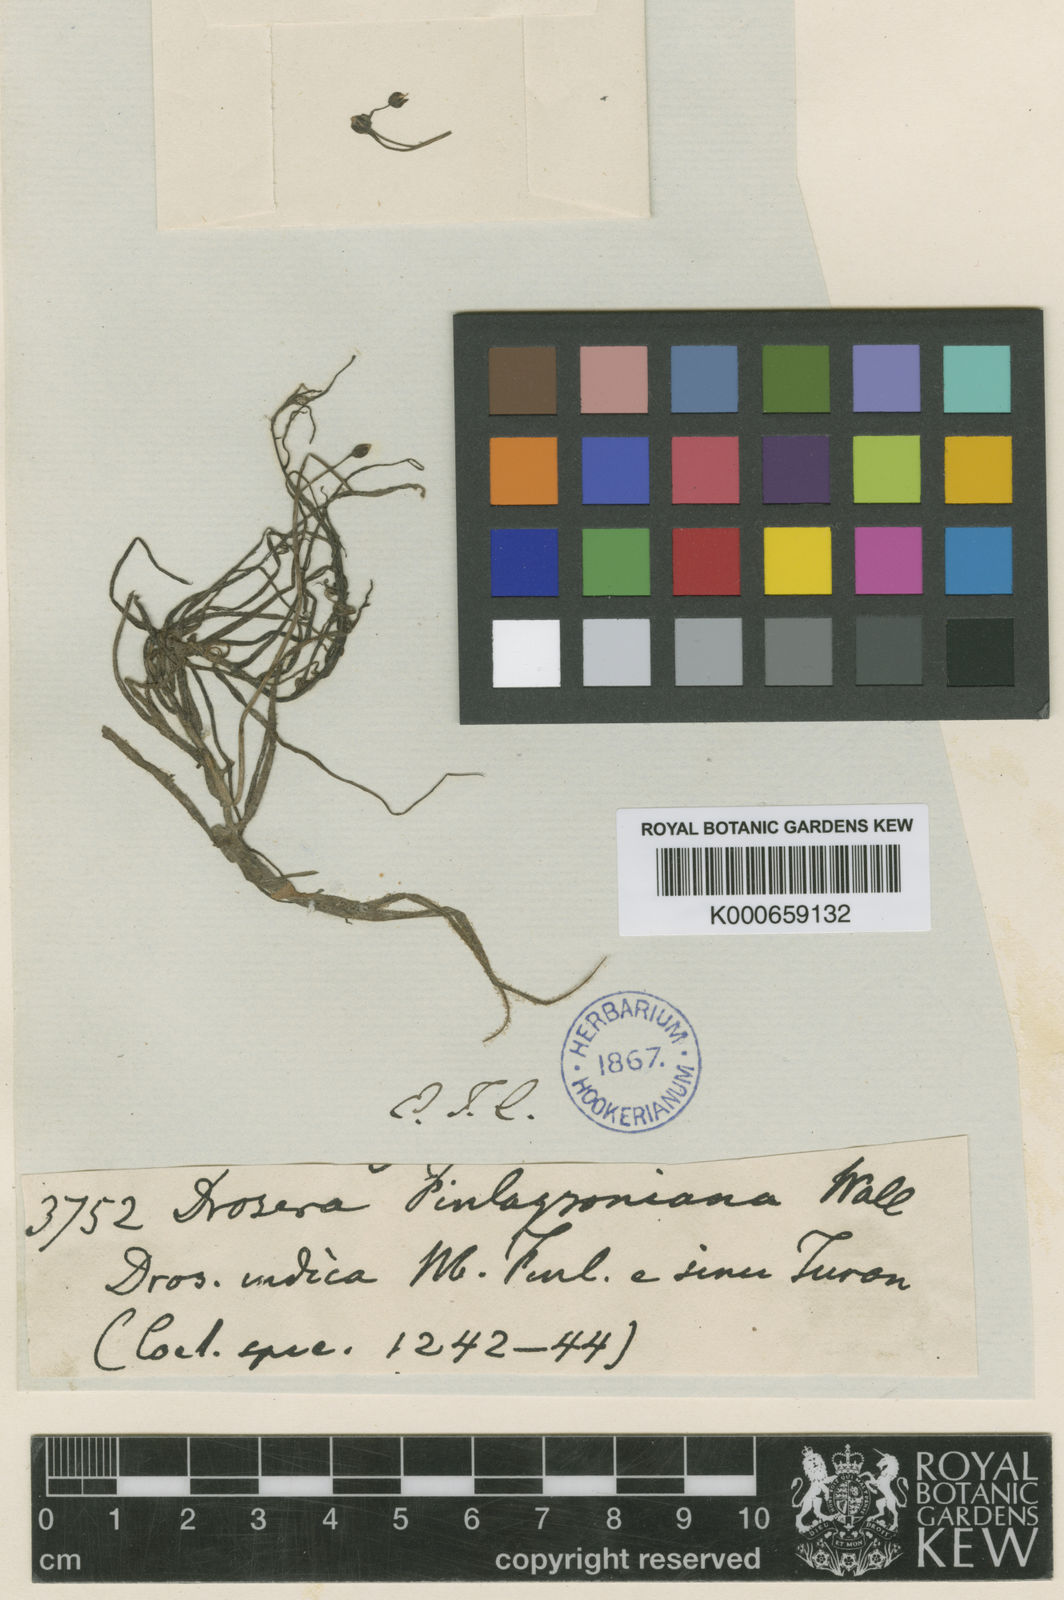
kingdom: Plantae
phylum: Tracheophyta
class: Magnoliopsida
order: Caryophyllales
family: Droseraceae
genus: Drosera
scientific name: Drosera indica
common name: Indian sundew
